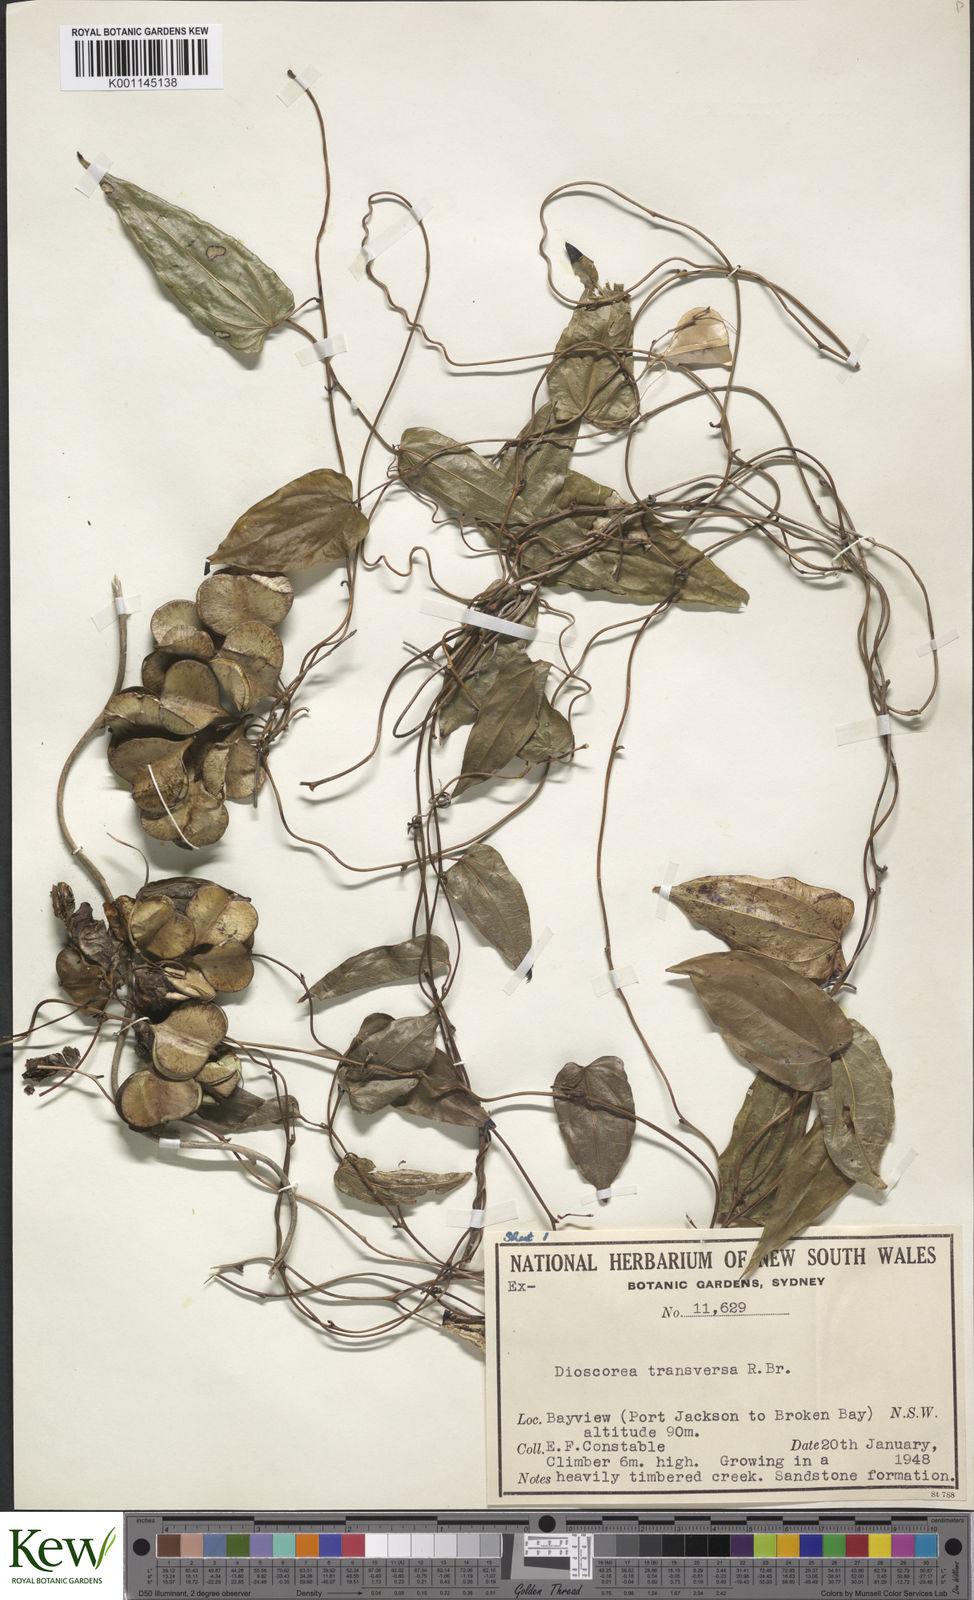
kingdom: Plantae
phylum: Tracheophyta
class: Liliopsida
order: Dioscoreales
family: Dioscoreaceae
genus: Dioscorea
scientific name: Dioscorea transversa
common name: Long yam
